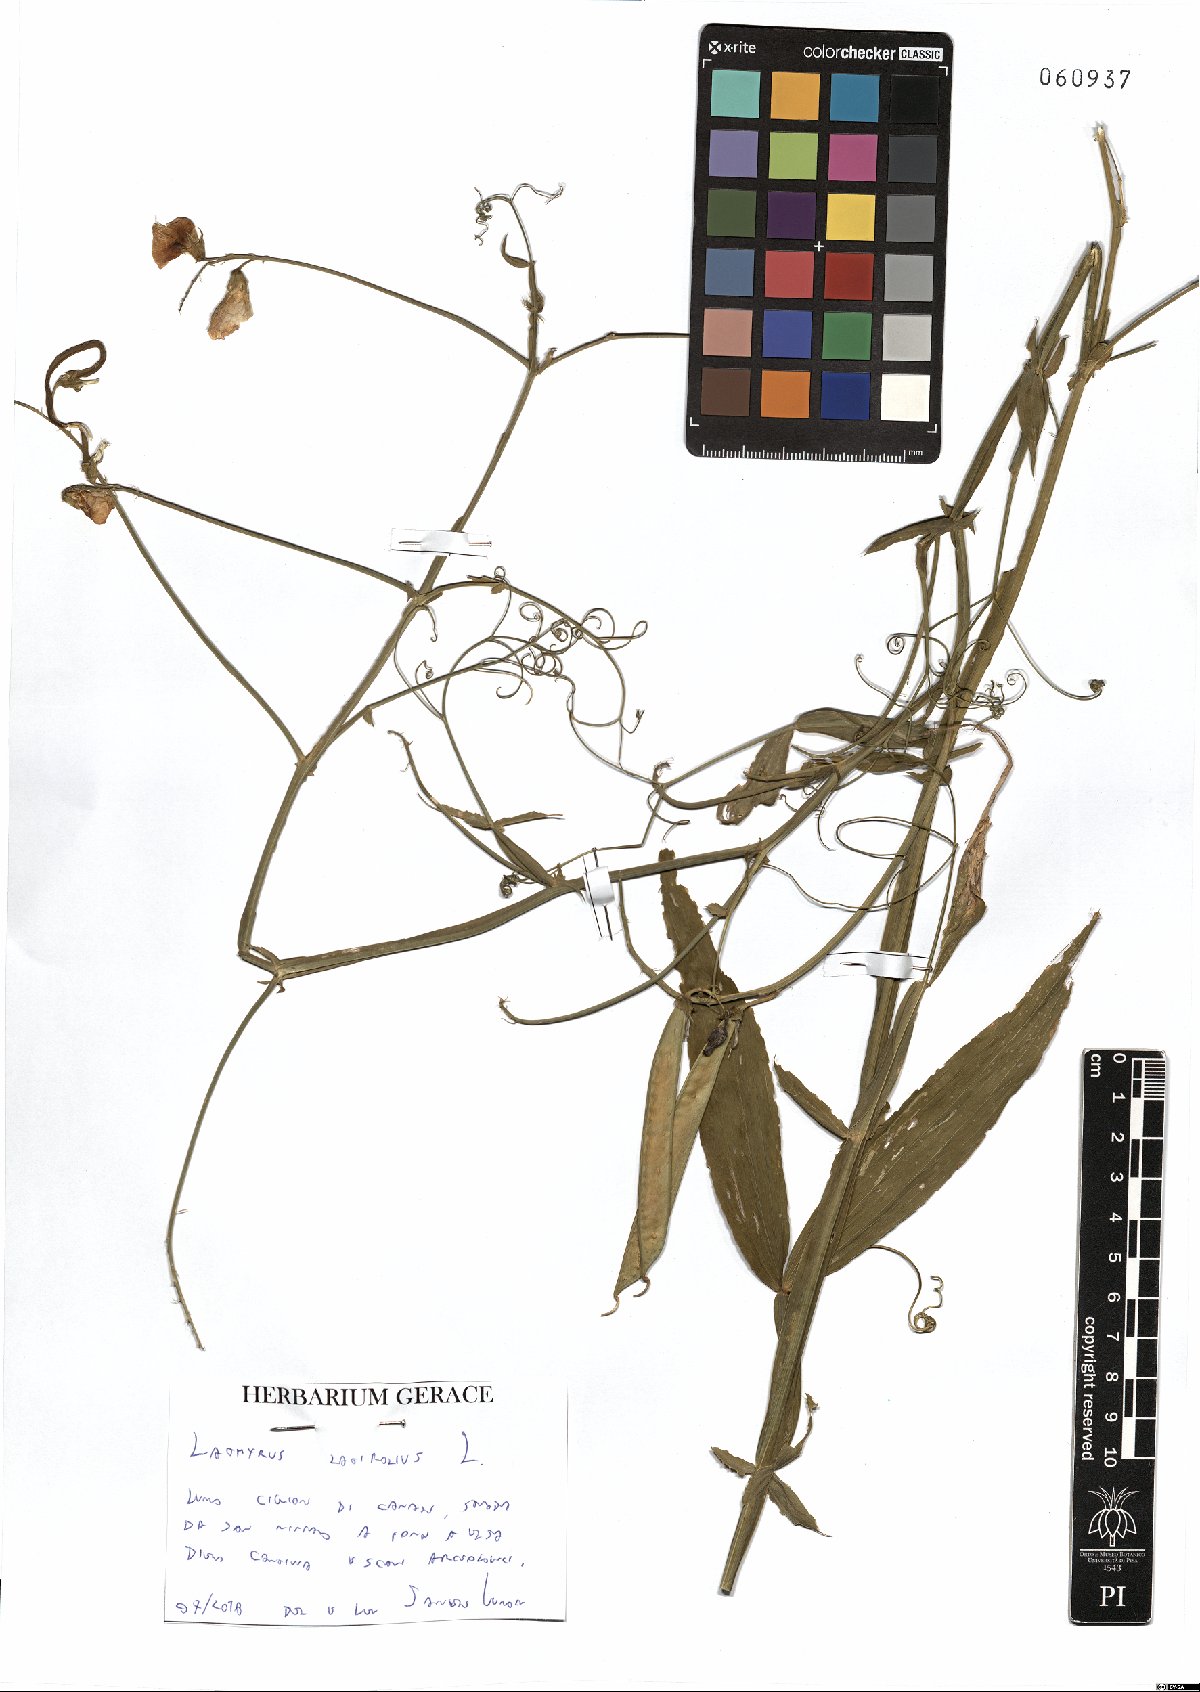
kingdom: Plantae
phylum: Tracheophyta
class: Magnoliopsida
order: Fabales
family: Fabaceae
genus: Lathyrus
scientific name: Lathyrus latifolius
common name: Perennial pea
